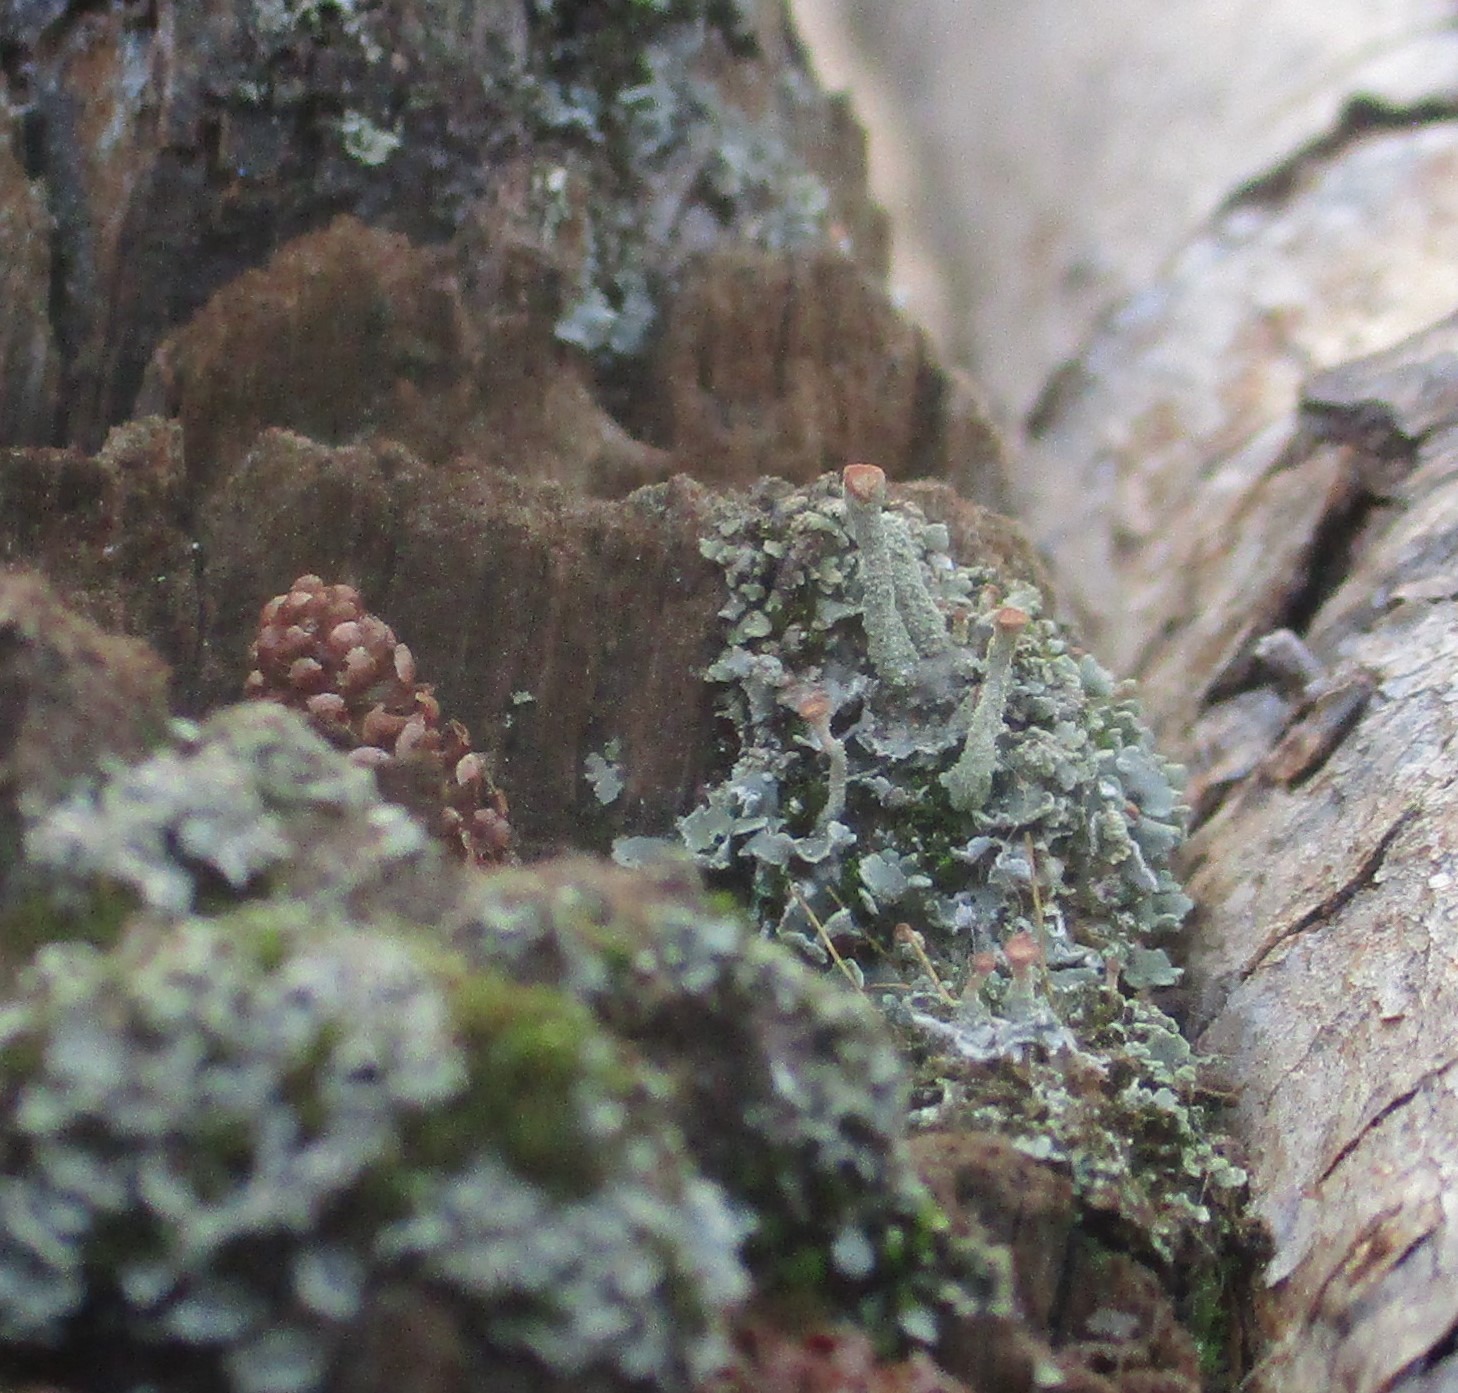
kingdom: Fungi
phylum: Ascomycota
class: Lecanoromycetes
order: Lecanorales
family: Cladoniaceae
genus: Cladonia
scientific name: Cladonia
